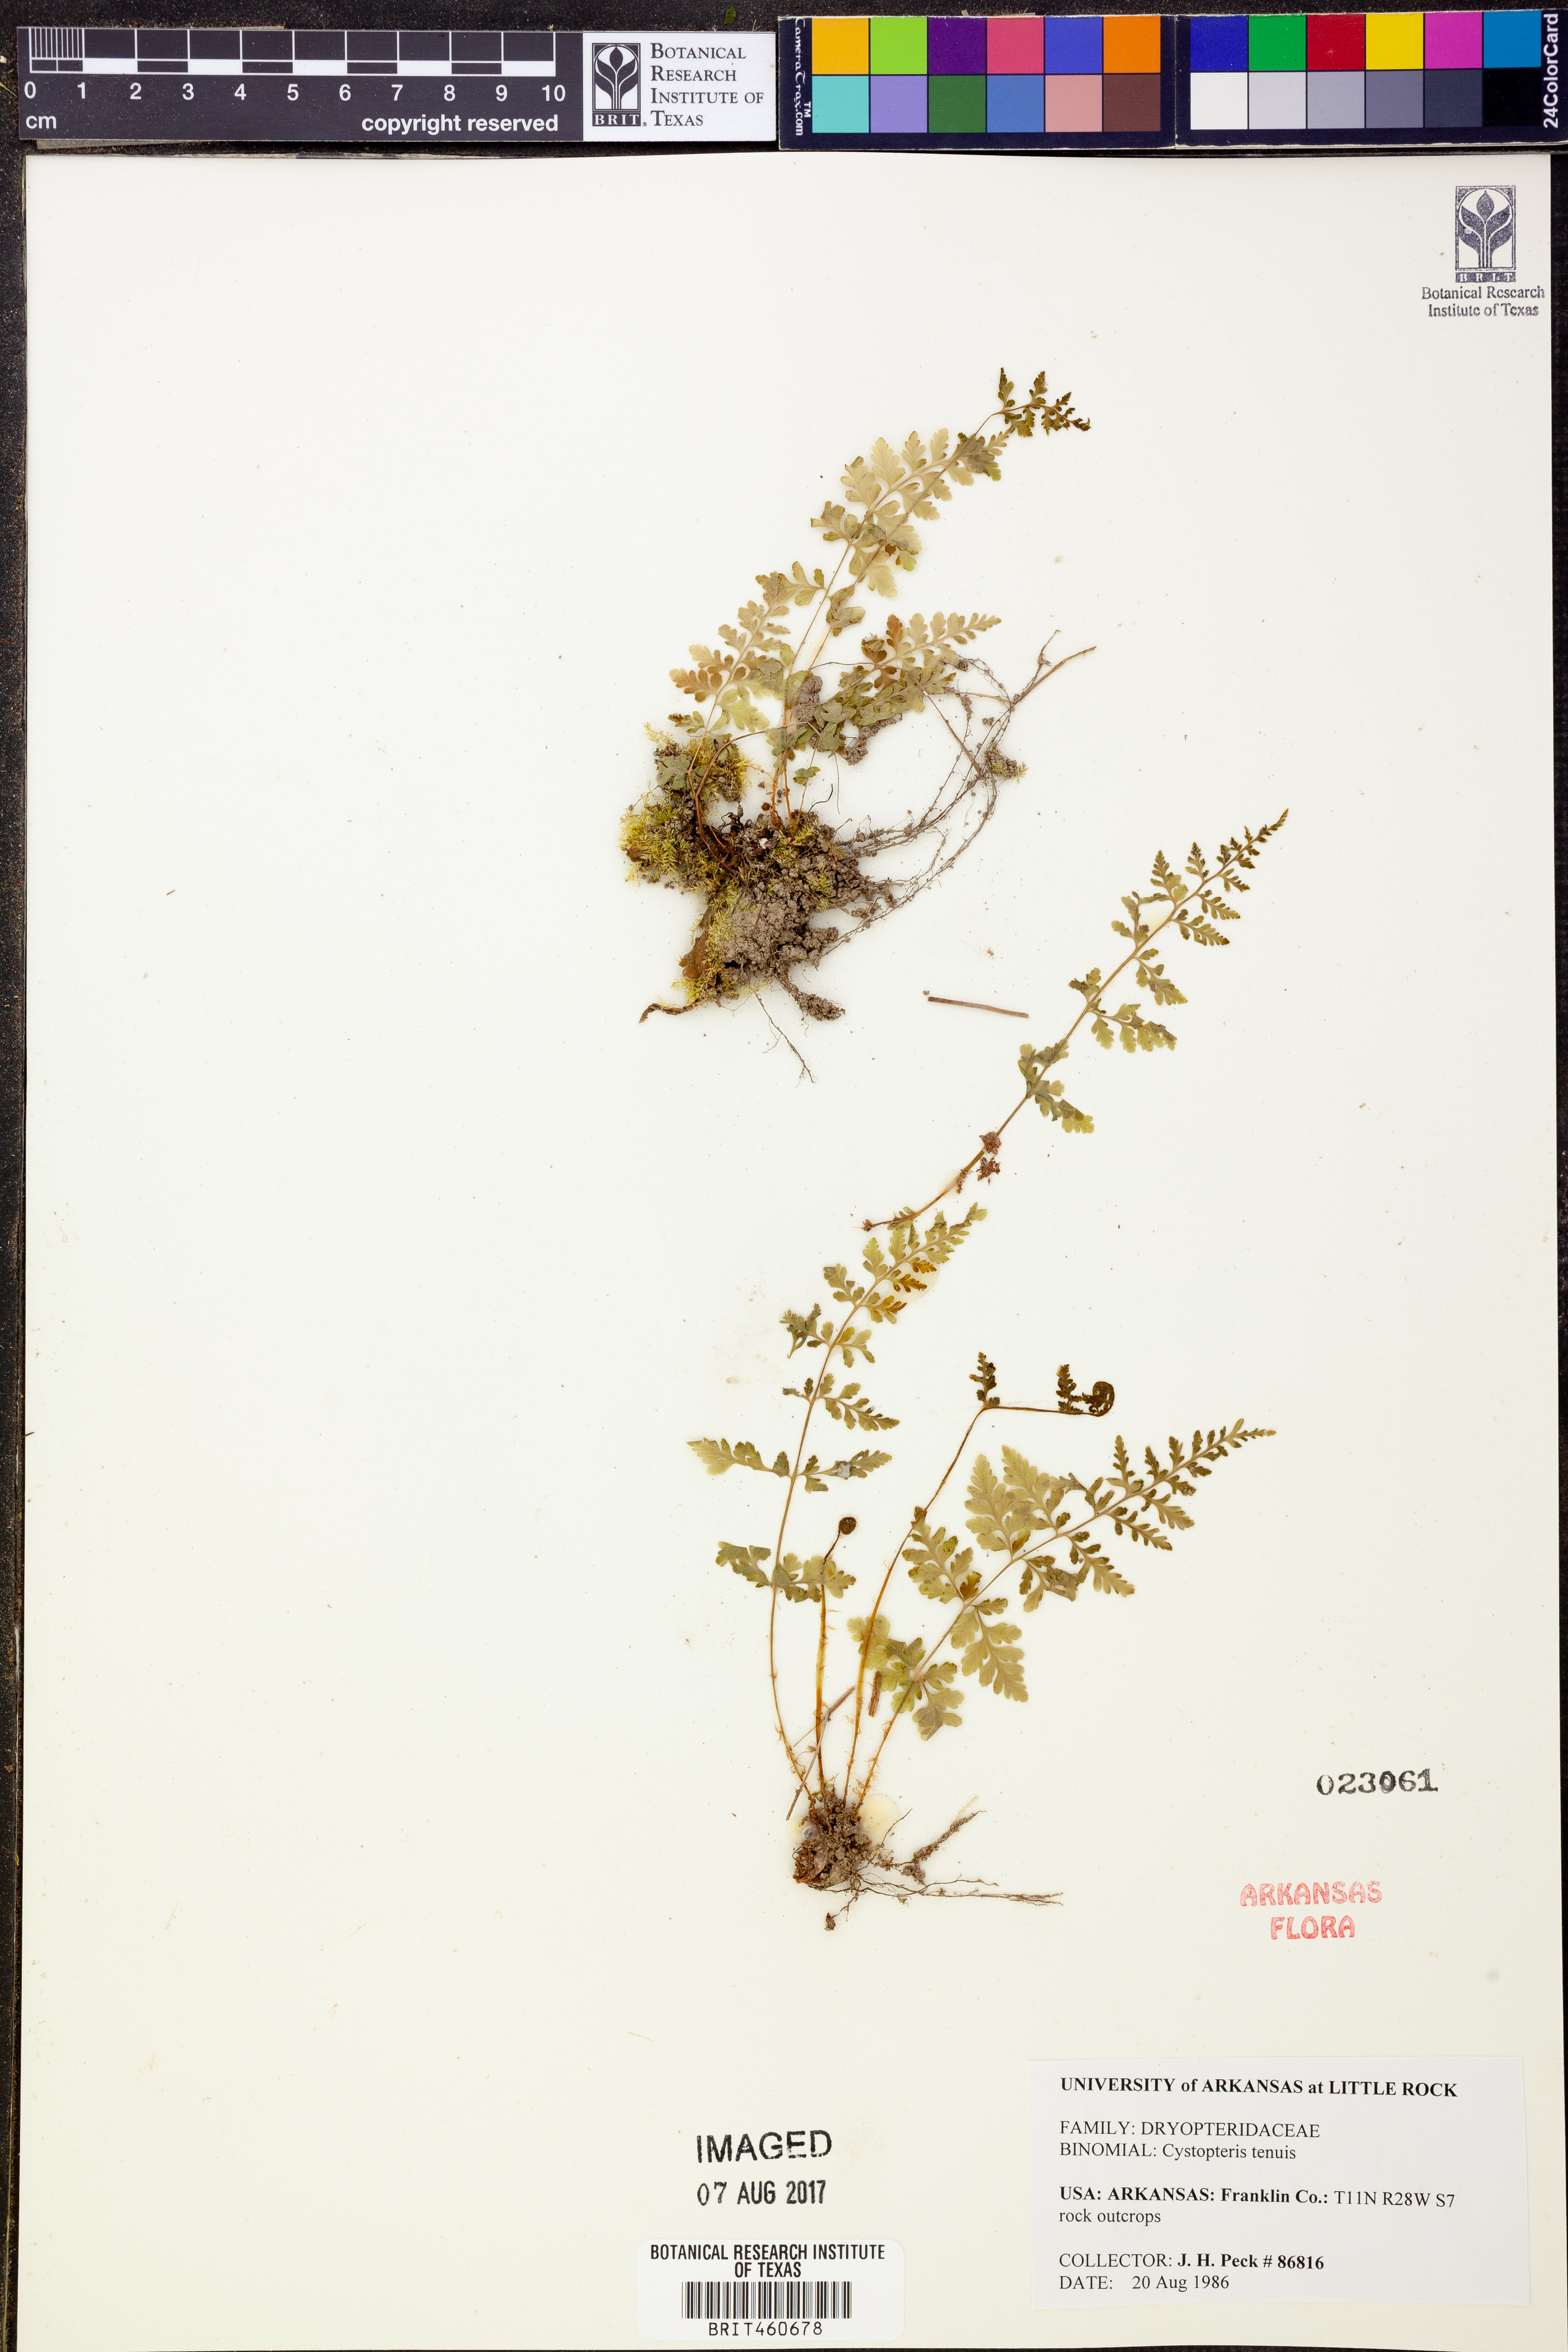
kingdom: Plantae
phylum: Tracheophyta
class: Polypodiopsida
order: Polypodiales
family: Cystopteridaceae
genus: Cystopteris
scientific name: Cystopteris tenuis
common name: Mackay's brittle fern
